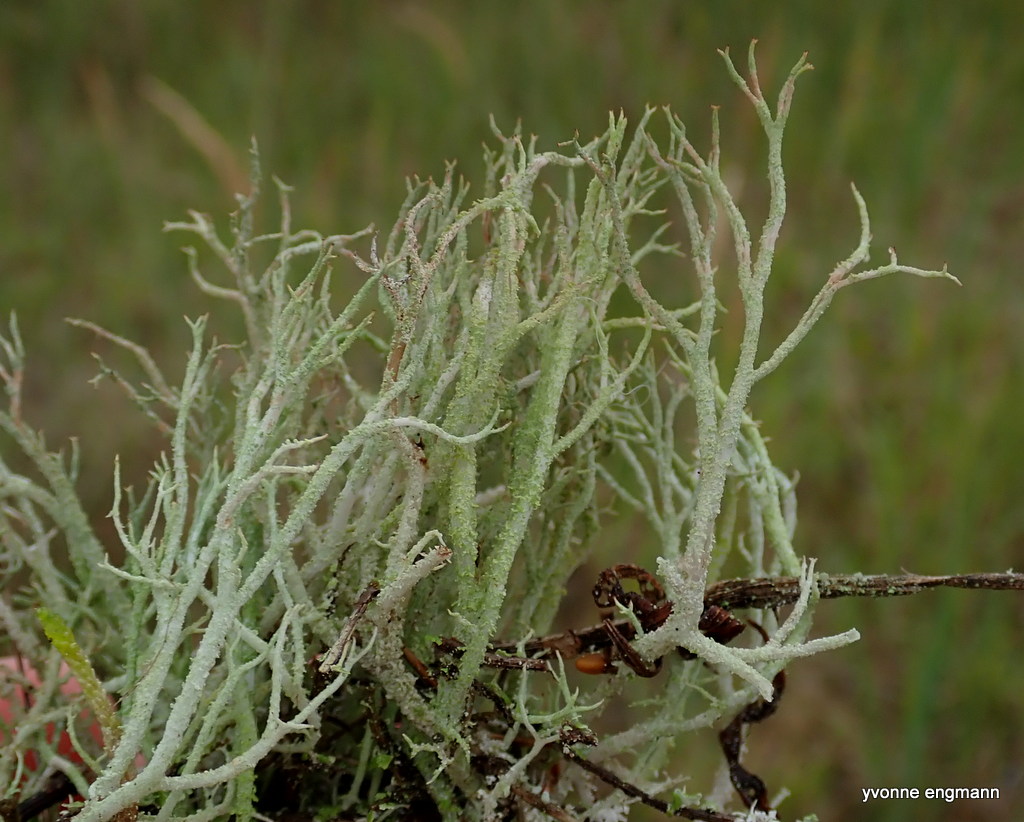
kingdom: Fungi
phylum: Ascomycota
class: Lecanoromycetes
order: Lecanorales
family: Cladoniaceae
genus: Cladonia
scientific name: Cladonia scabriuscula
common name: ru bægerlav
